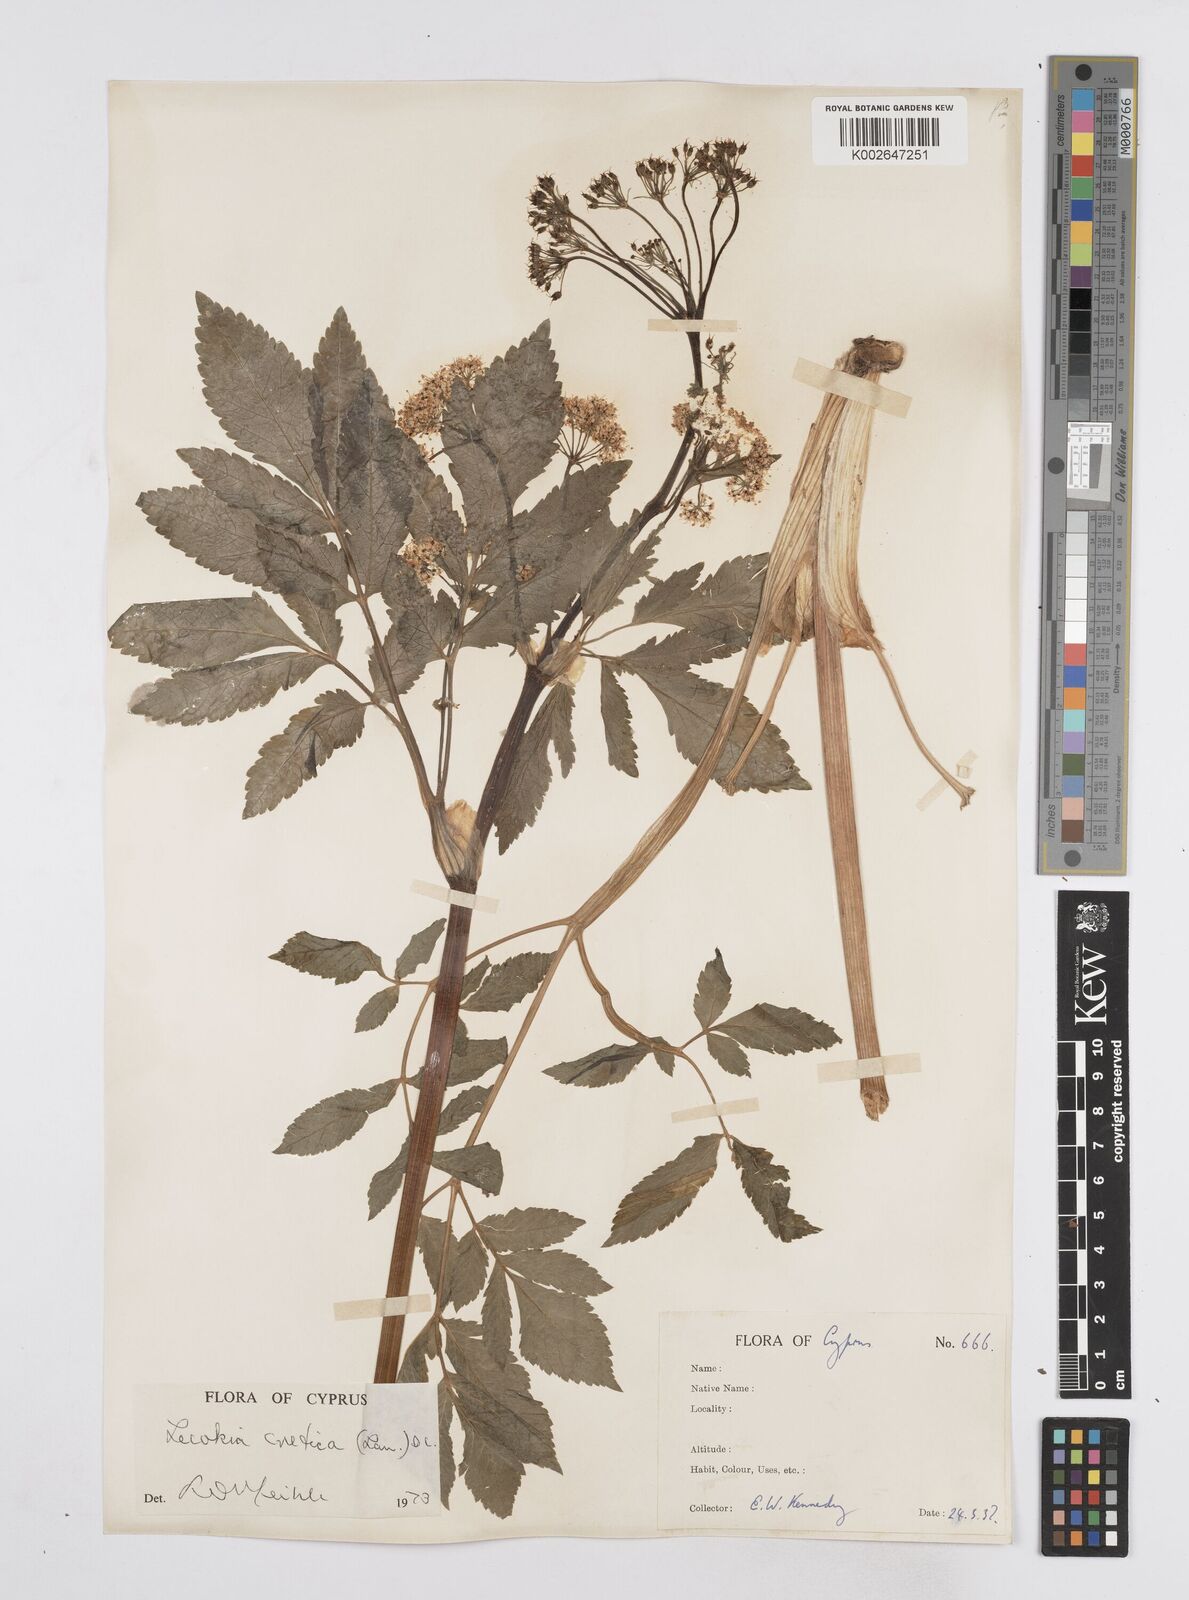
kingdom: Plantae
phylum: Tracheophyta
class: Magnoliopsida
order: Apiales
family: Apiaceae
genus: Lecokia
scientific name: Lecokia cretica
